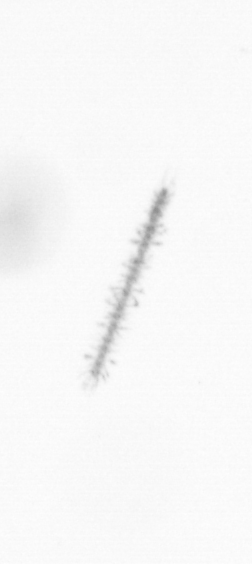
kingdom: Chromista
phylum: Ochrophyta
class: Bacillariophyceae
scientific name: Bacillariophyceae
